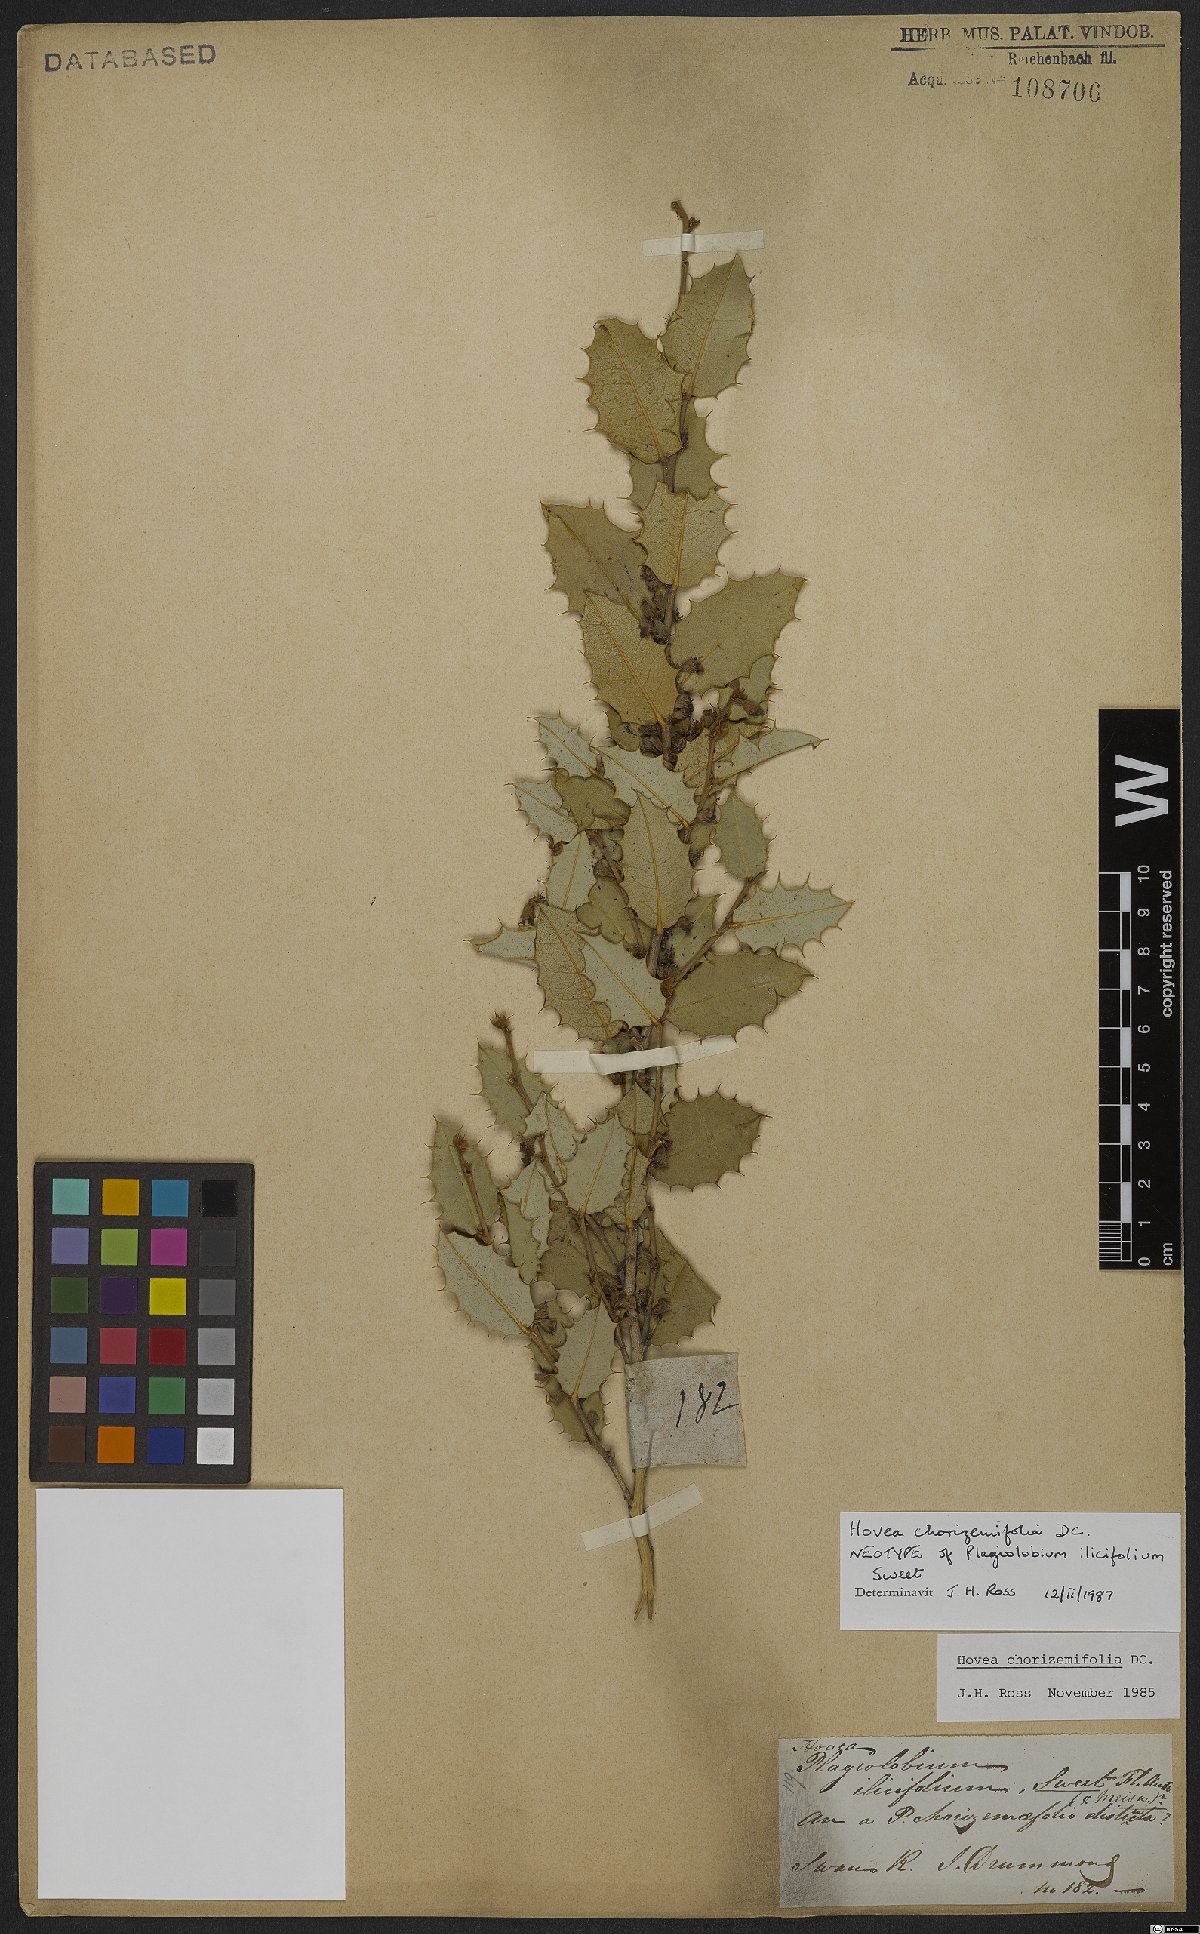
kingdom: Plantae
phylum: Tracheophyta
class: Magnoliopsida
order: Fabales
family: Fabaceae
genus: Hovea
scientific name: Hovea chorizemifolia
